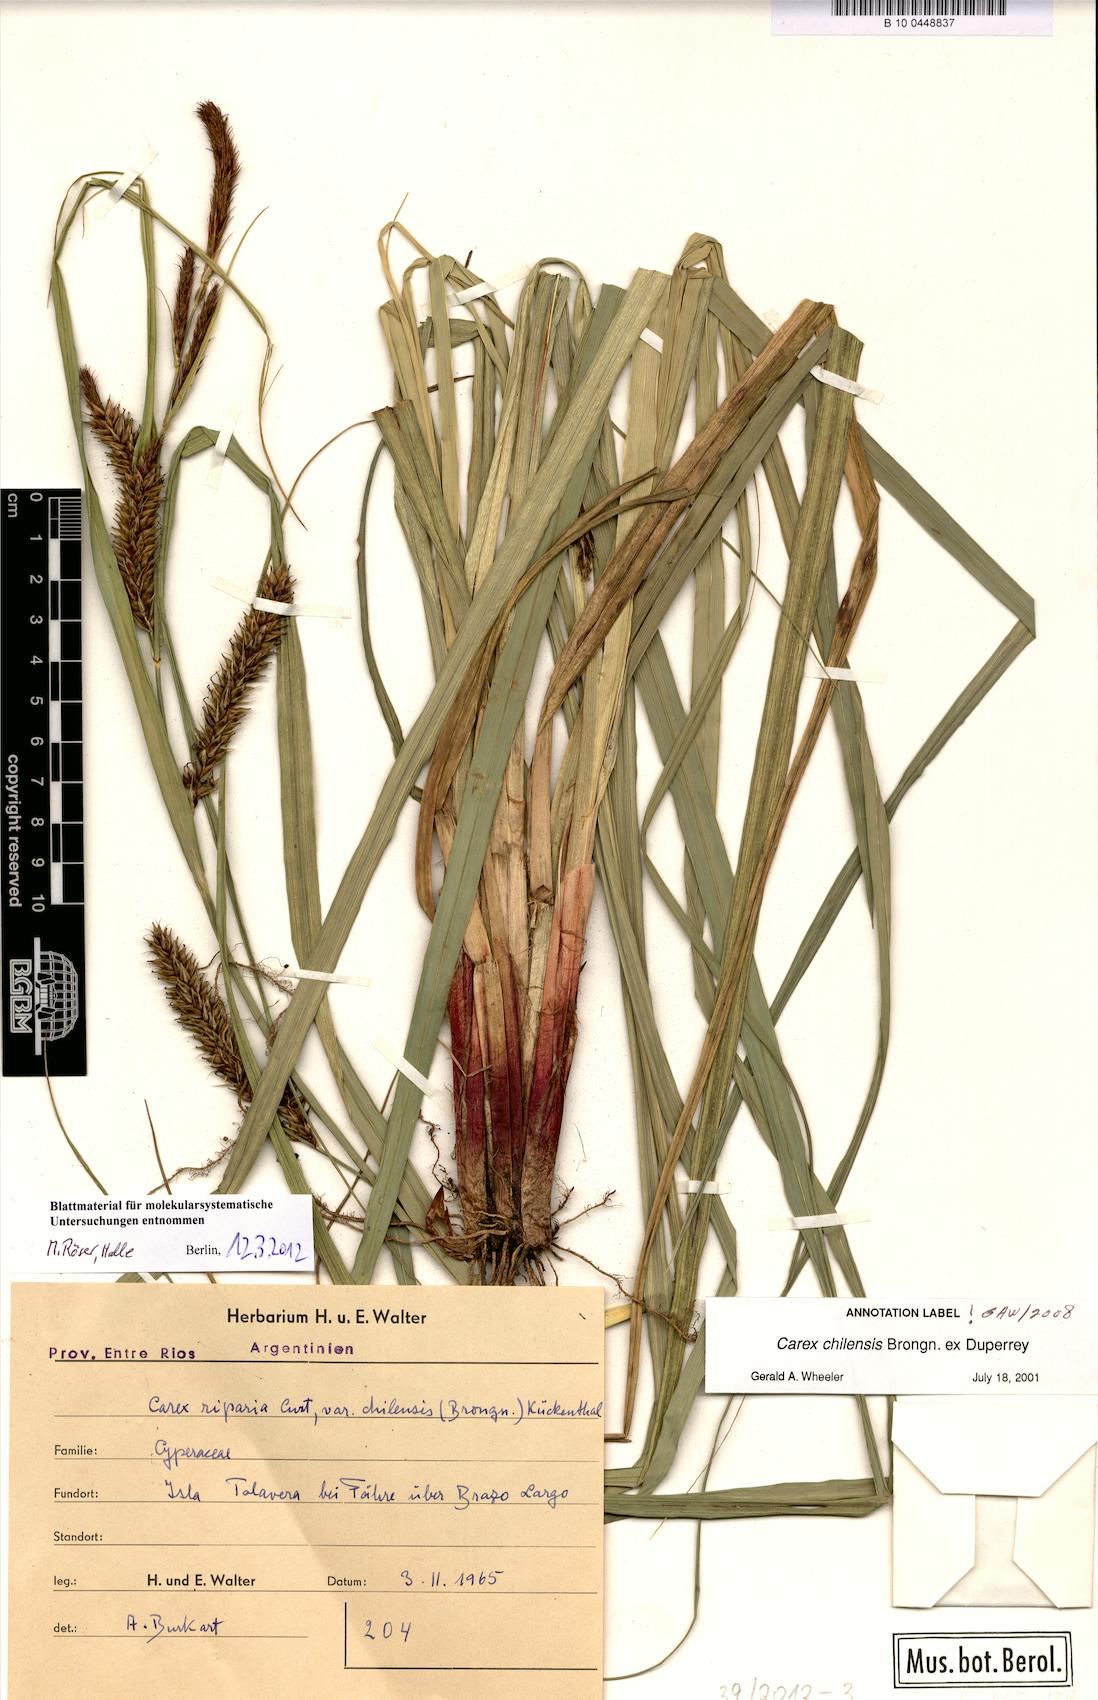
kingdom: Plantae
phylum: Tracheophyta
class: Liliopsida
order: Poales
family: Cyperaceae
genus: Carex
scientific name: Carex chilensis
